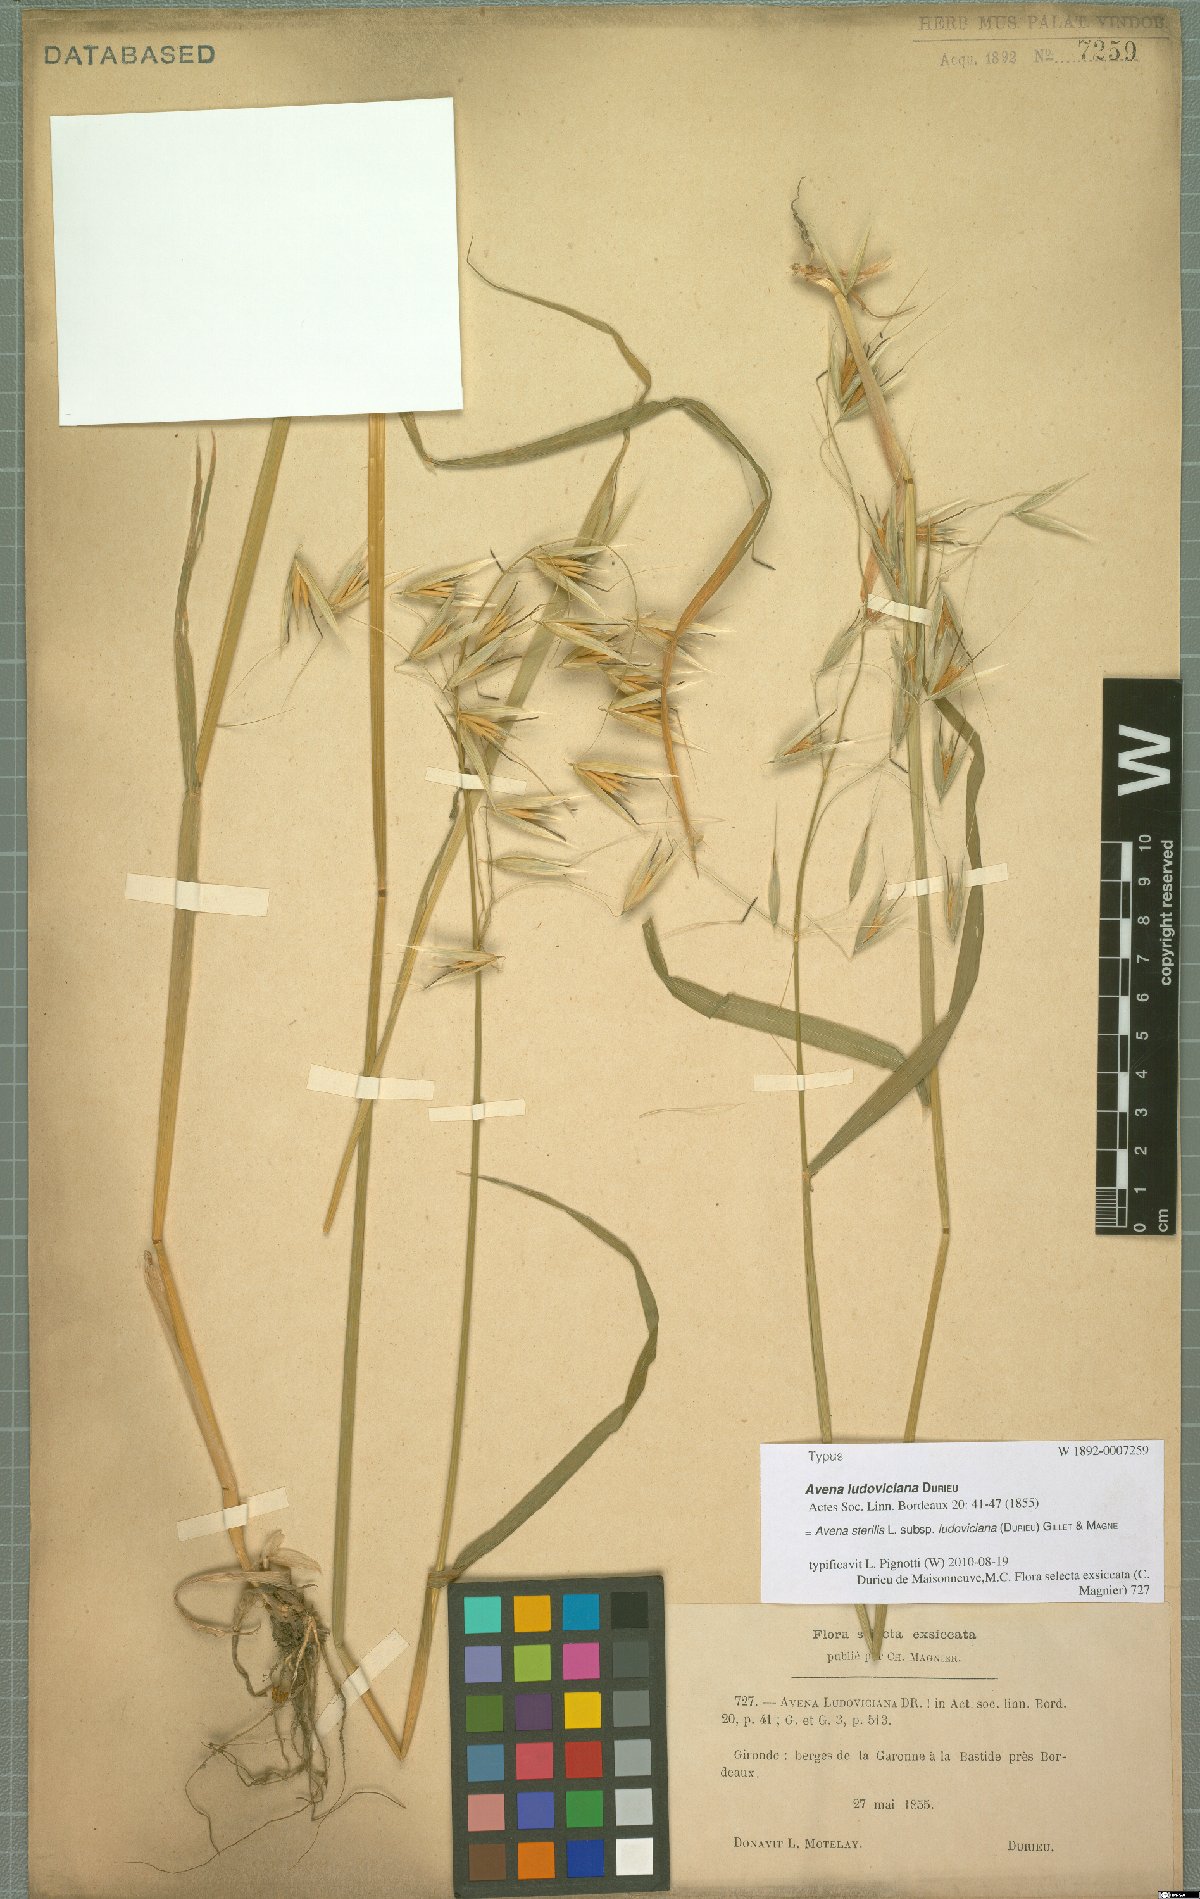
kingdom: Plantae
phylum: Tracheophyta
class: Liliopsida
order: Poales
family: Poaceae
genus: Avena
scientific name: Avena sterilis
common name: Animated oat
